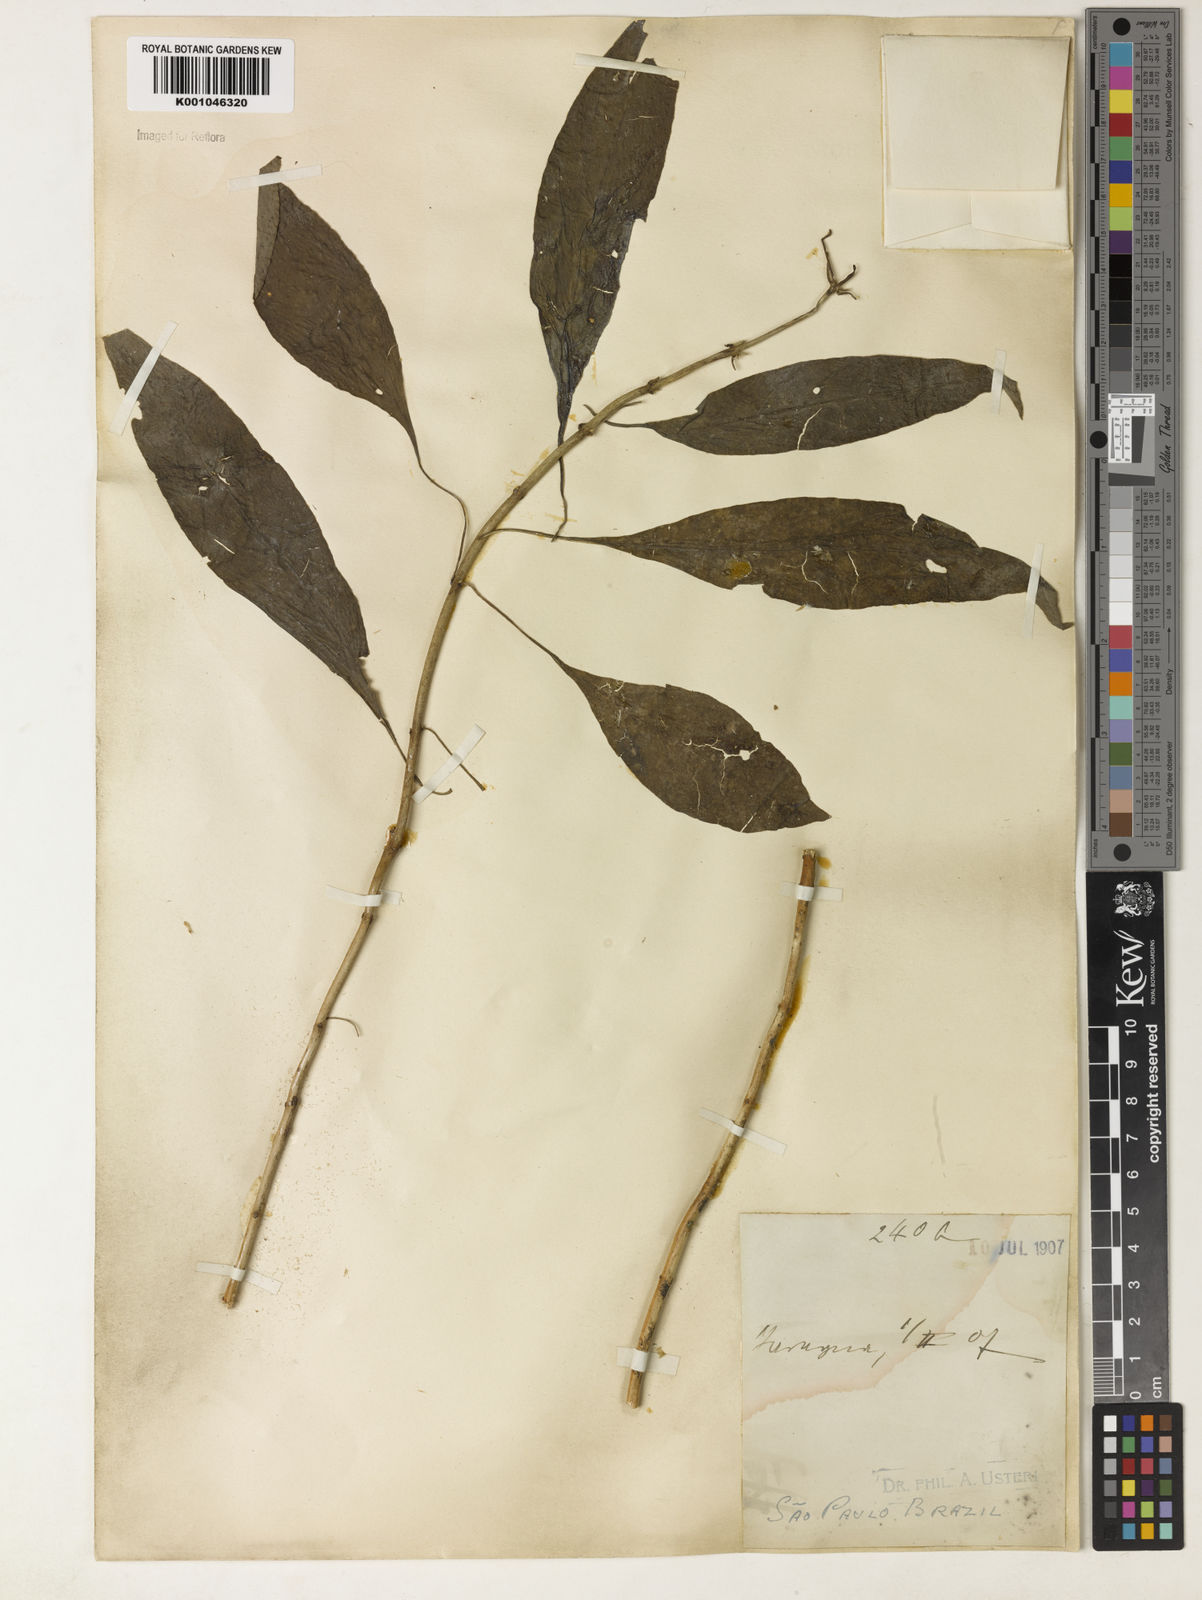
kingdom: Plantae
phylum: Tracheophyta
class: Magnoliopsida
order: Lamiales
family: Acanthaceae
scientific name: Acanthaceae
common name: Acanthaceae
